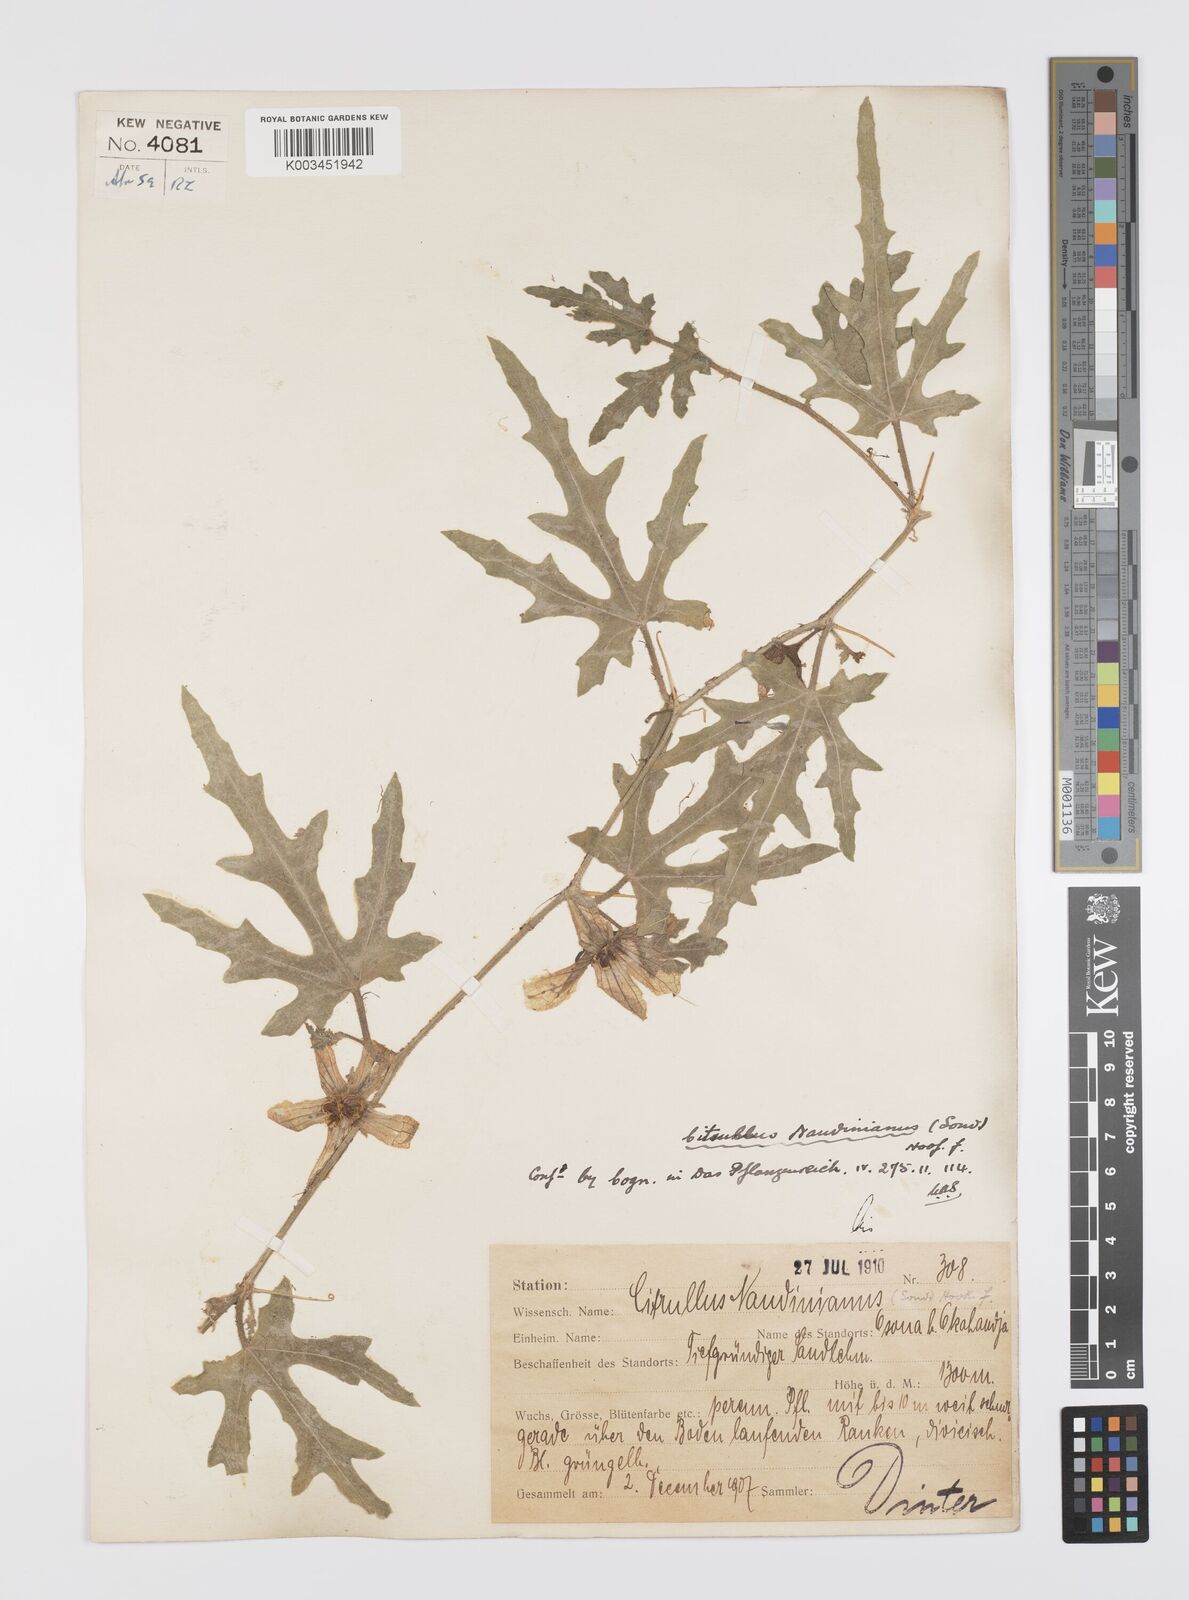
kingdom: Plantae
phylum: Tracheophyta
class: Magnoliopsida
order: Cucurbitales
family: Cucurbitaceae
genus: Citrullus
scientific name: Citrullus naudinianus
